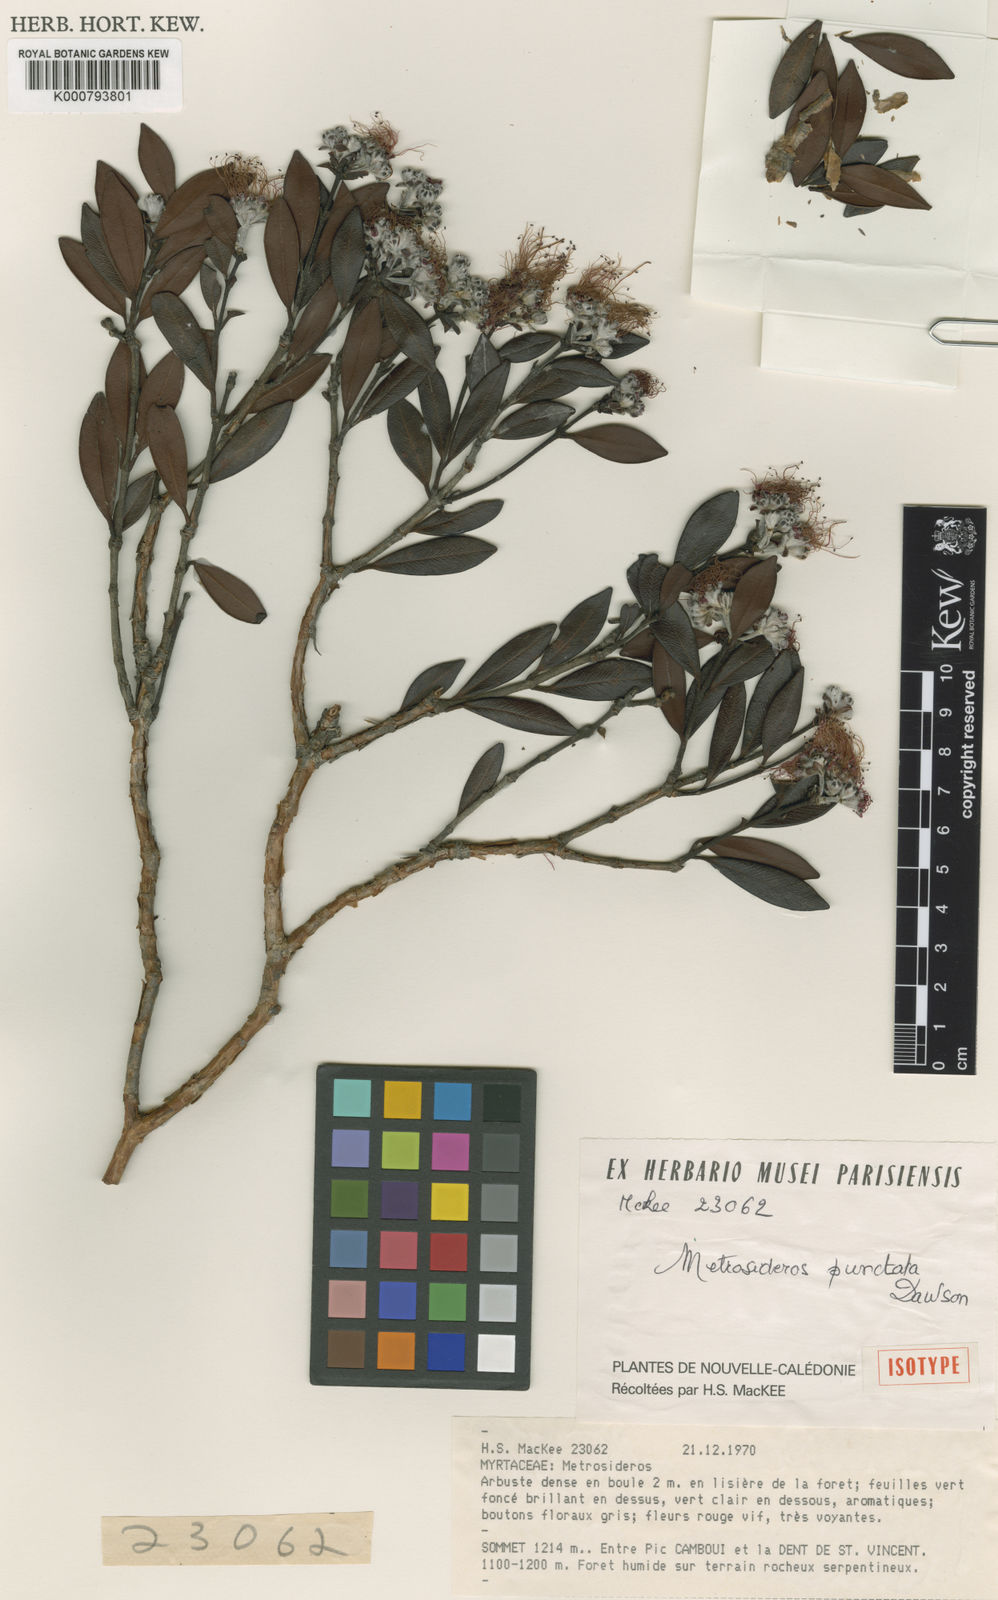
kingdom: Plantae
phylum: Tracheophyta
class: Magnoliopsida
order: Myrtales
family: Myrtaceae
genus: Metrosideros
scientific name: Metrosideros punctata
